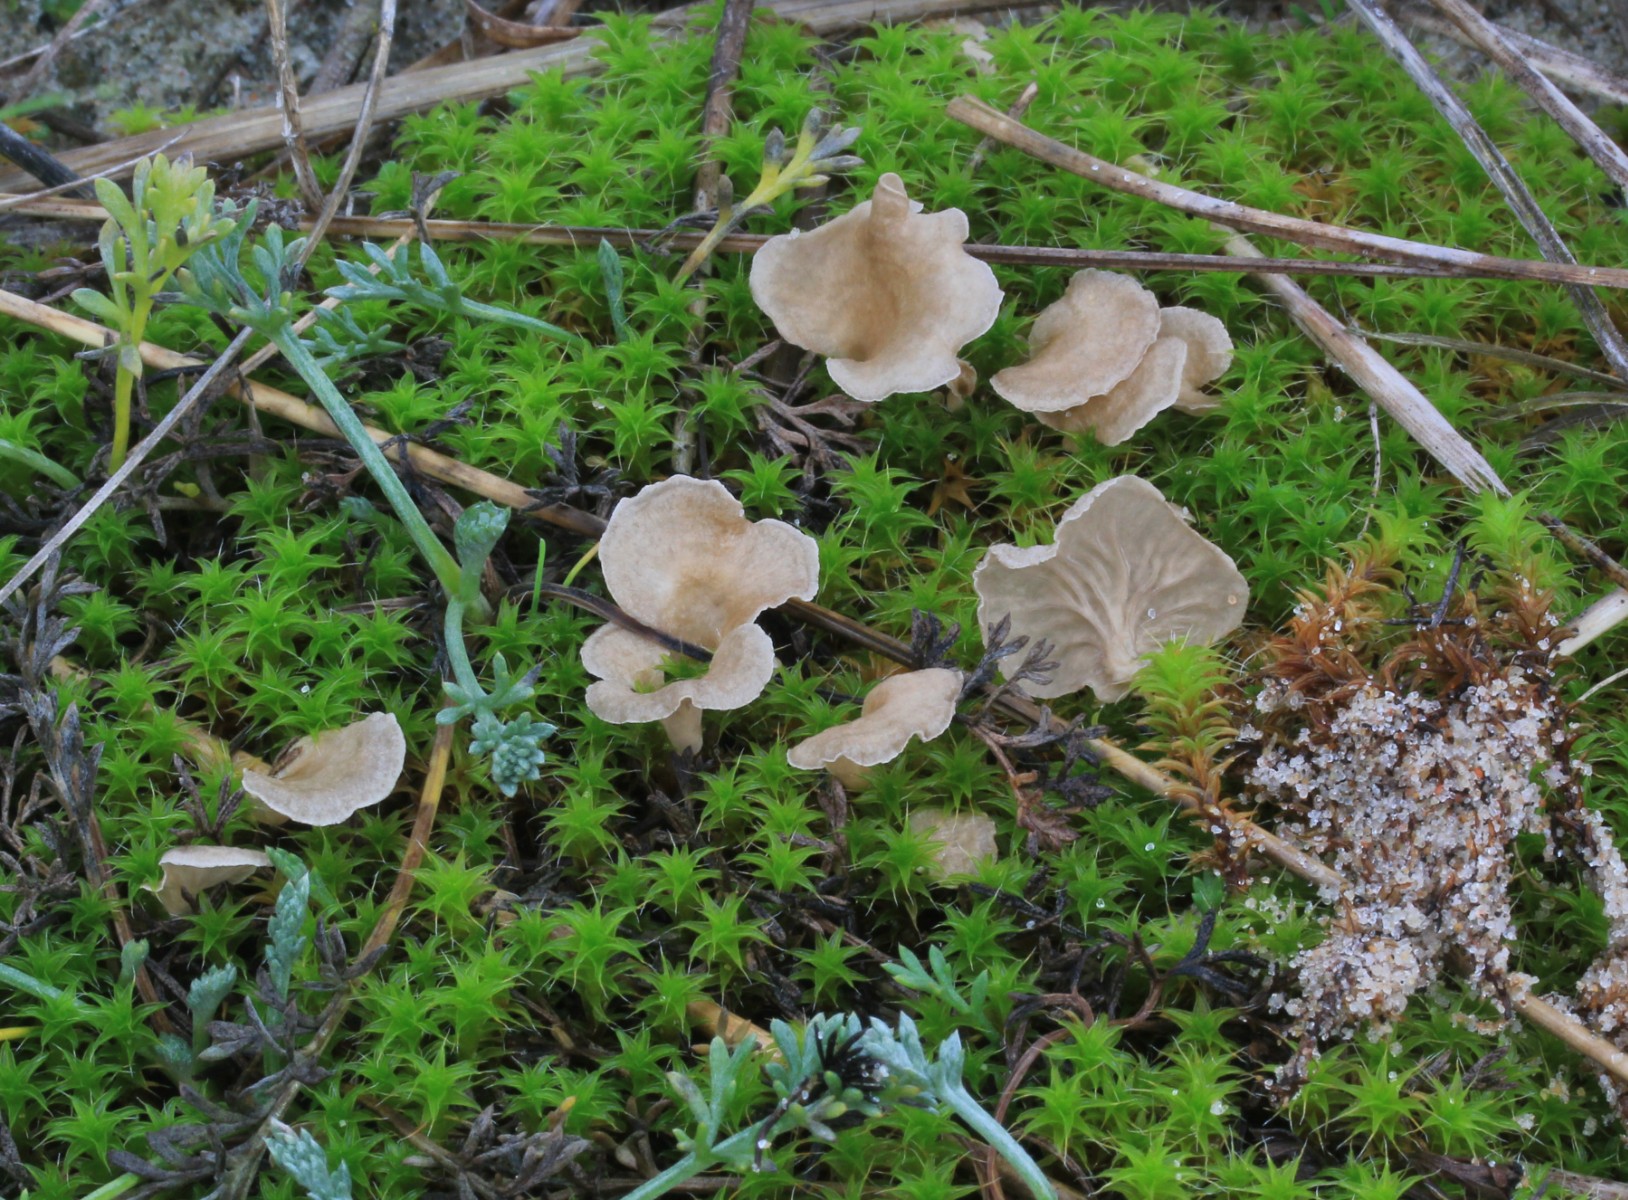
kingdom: Fungi
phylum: Basidiomycota
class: Agaricomycetes
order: Agaricales
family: Hygrophoraceae
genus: Arrhenia
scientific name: Arrhenia spathulata
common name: skæv fontænehat
